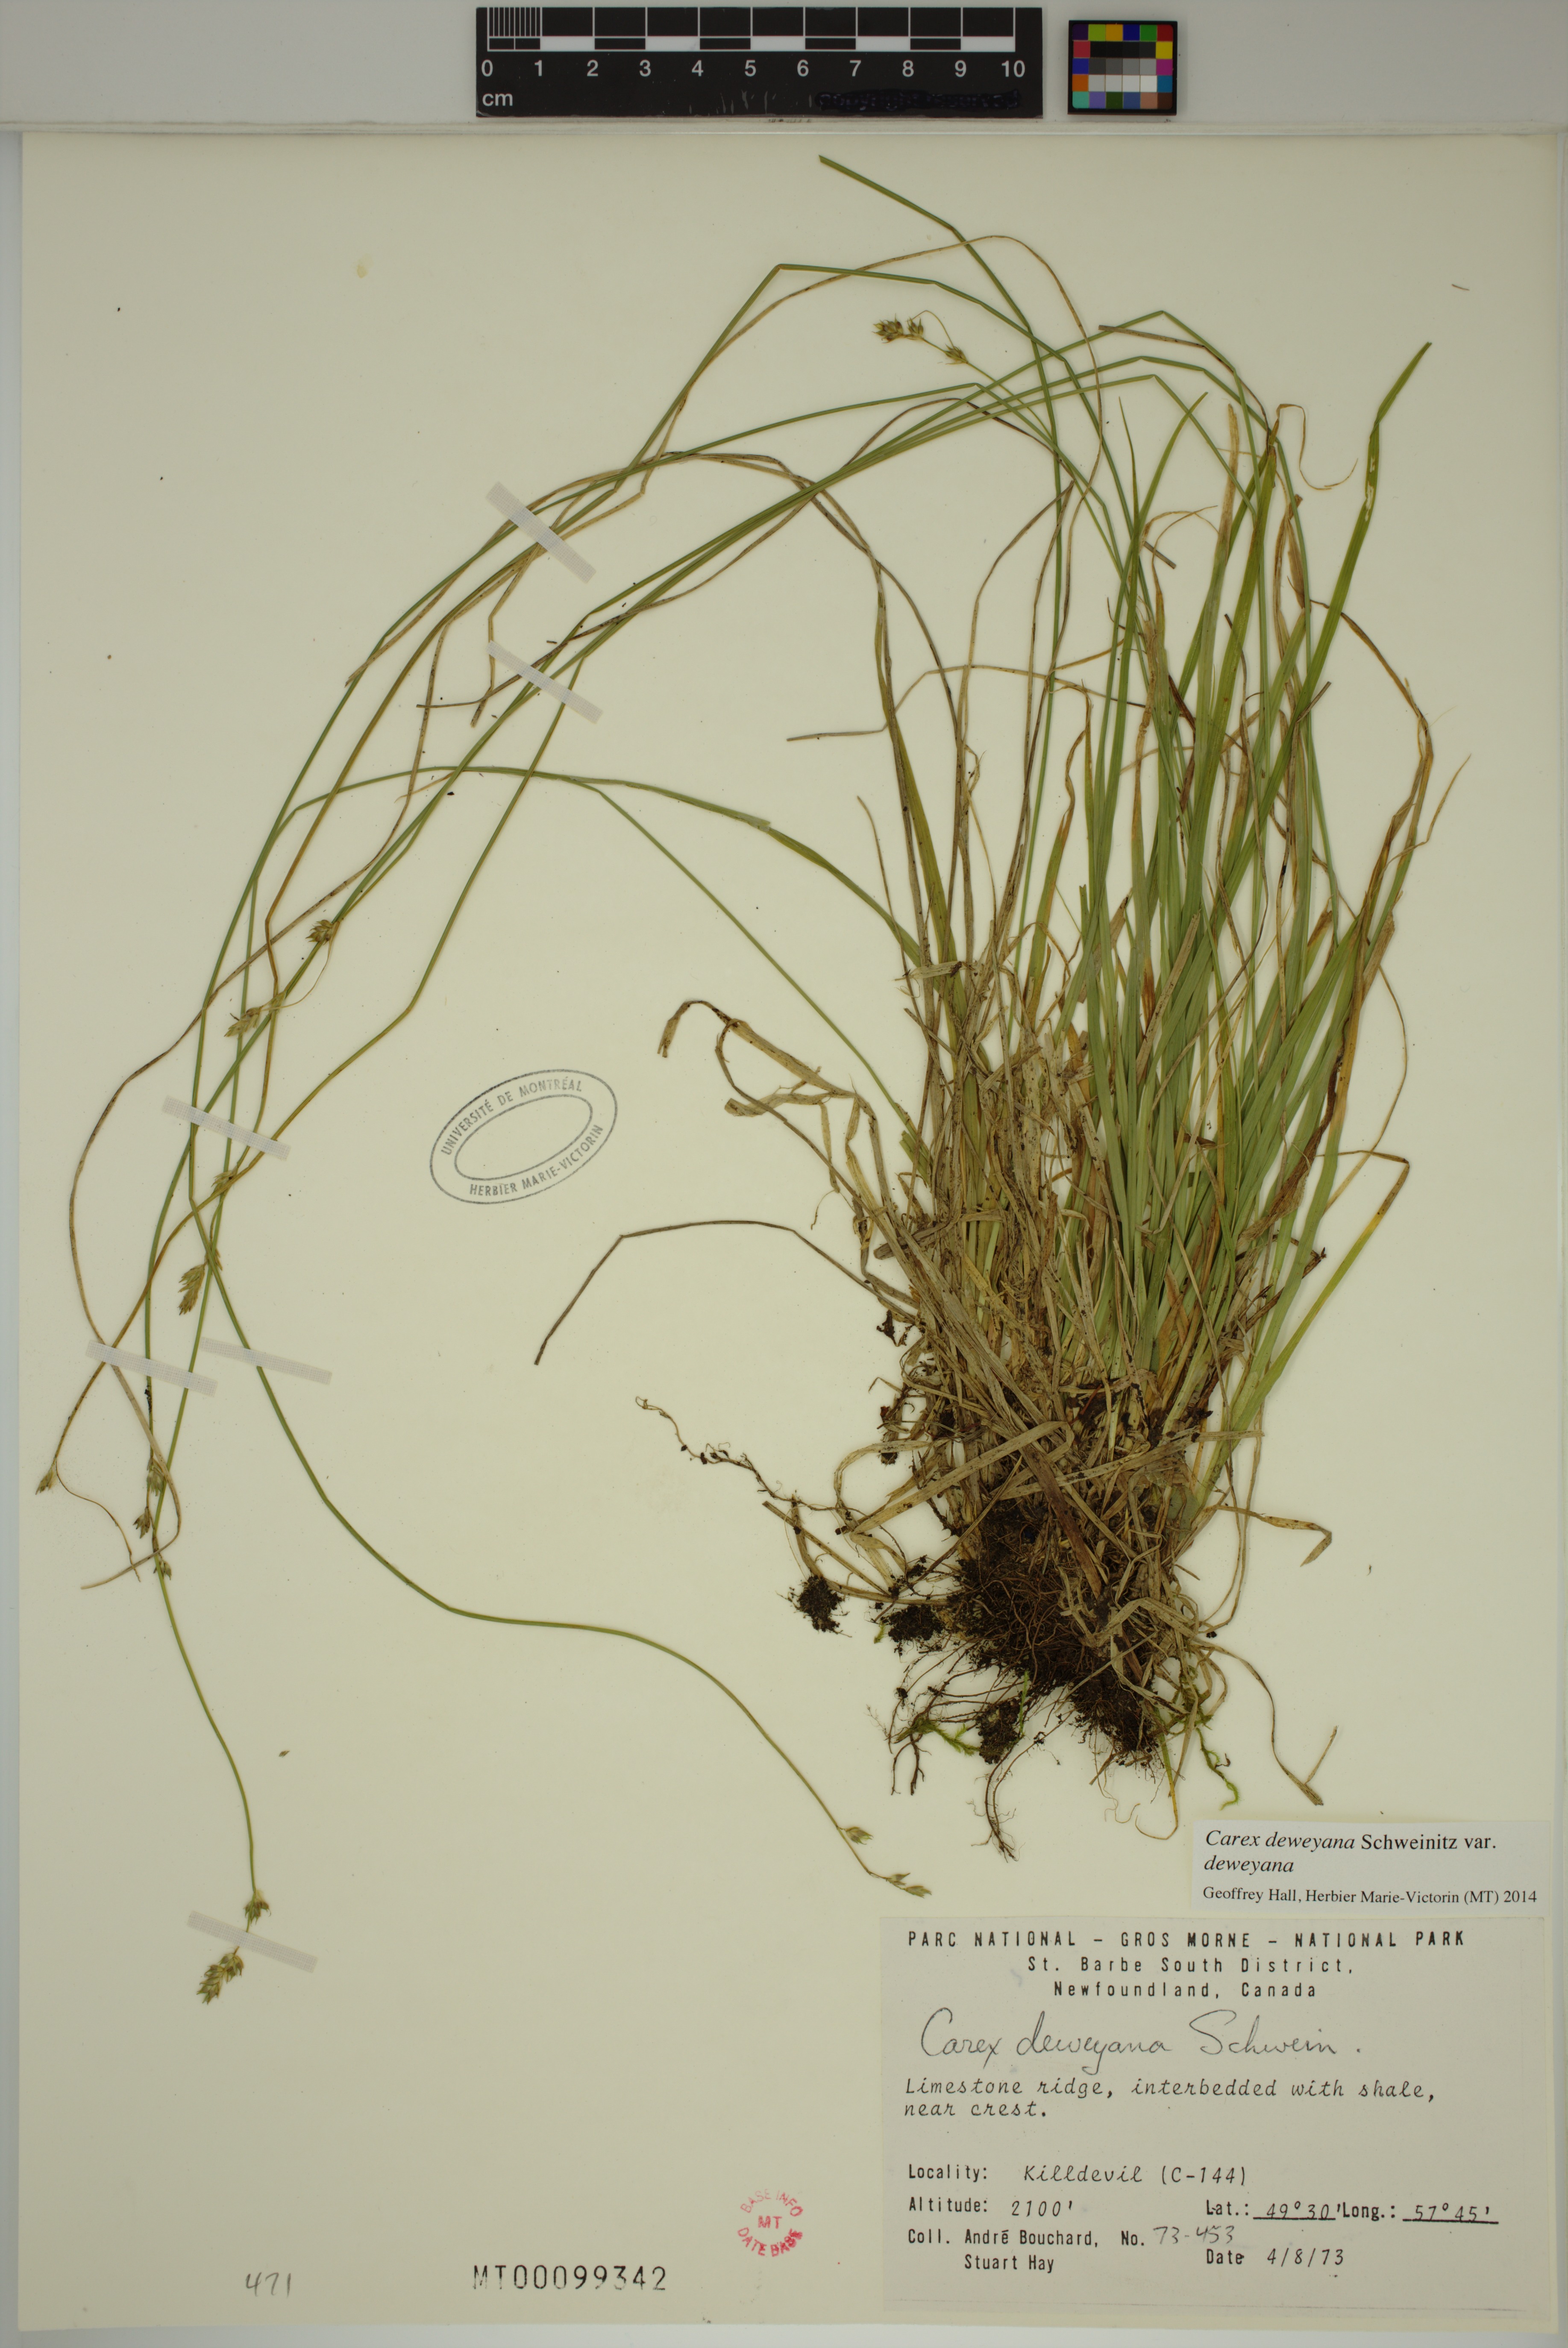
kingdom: Plantae
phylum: Tracheophyta
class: Liliopsida
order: Poales
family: Cyperaceae
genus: Carex
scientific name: Carex deweyana
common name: Dewey's sedge
